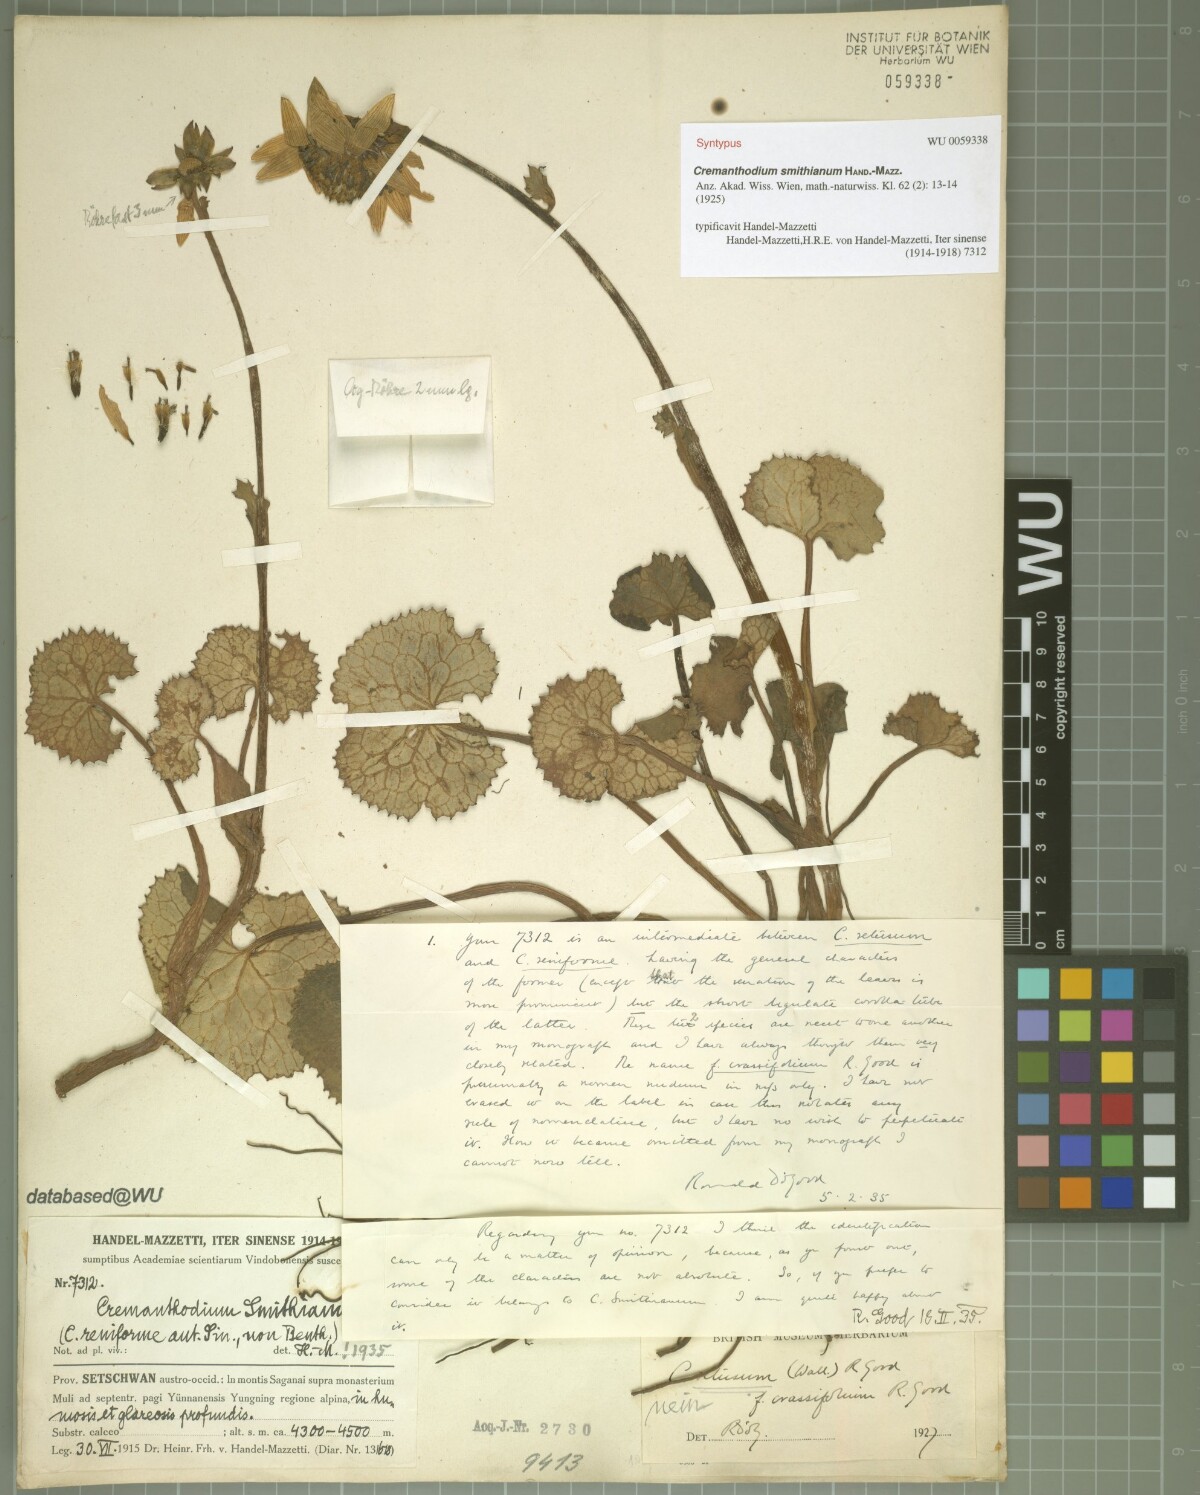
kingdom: Plantae
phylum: Tracheophyta
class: Magnoliopsida
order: Asterales
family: Asteraceae
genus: Cremanthodium
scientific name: Cremanthodium smithianum
